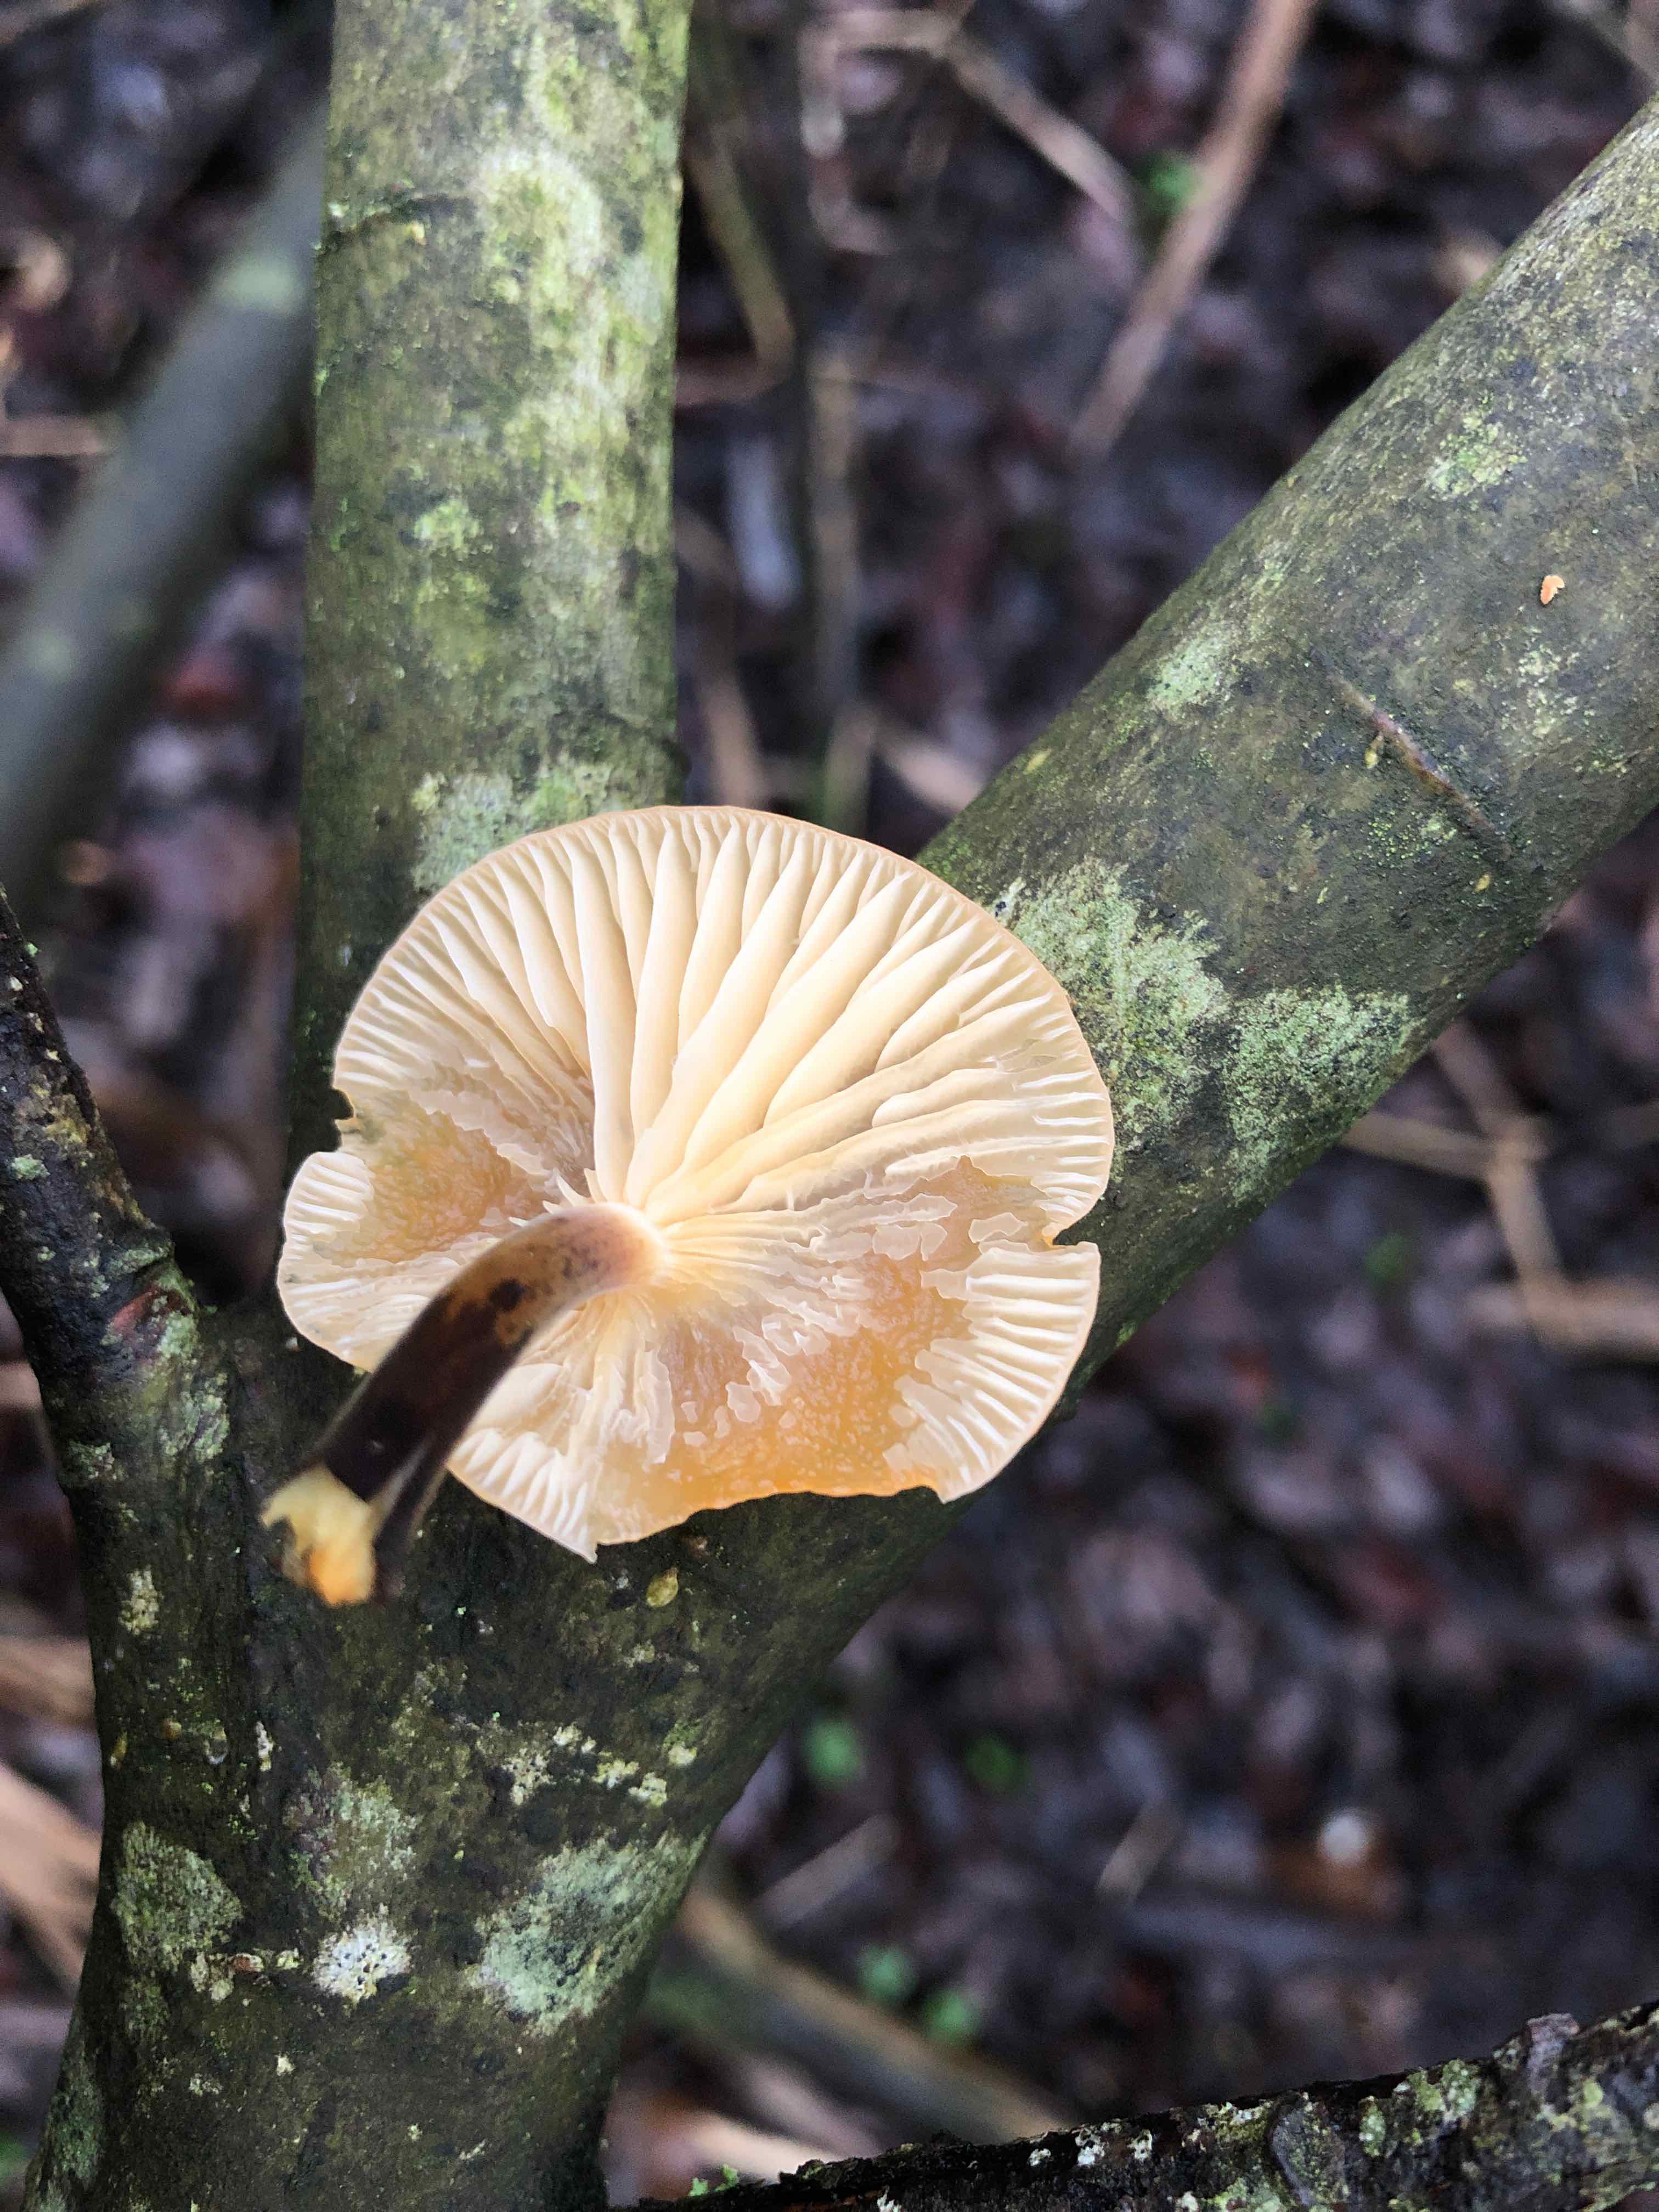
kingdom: Fungi
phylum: Basidiomycota
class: Agaricomycetes
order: Agaricales
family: Physalacriaceae
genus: Flammulina
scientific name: Flammulina elastica
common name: pile-fløjlsfod
